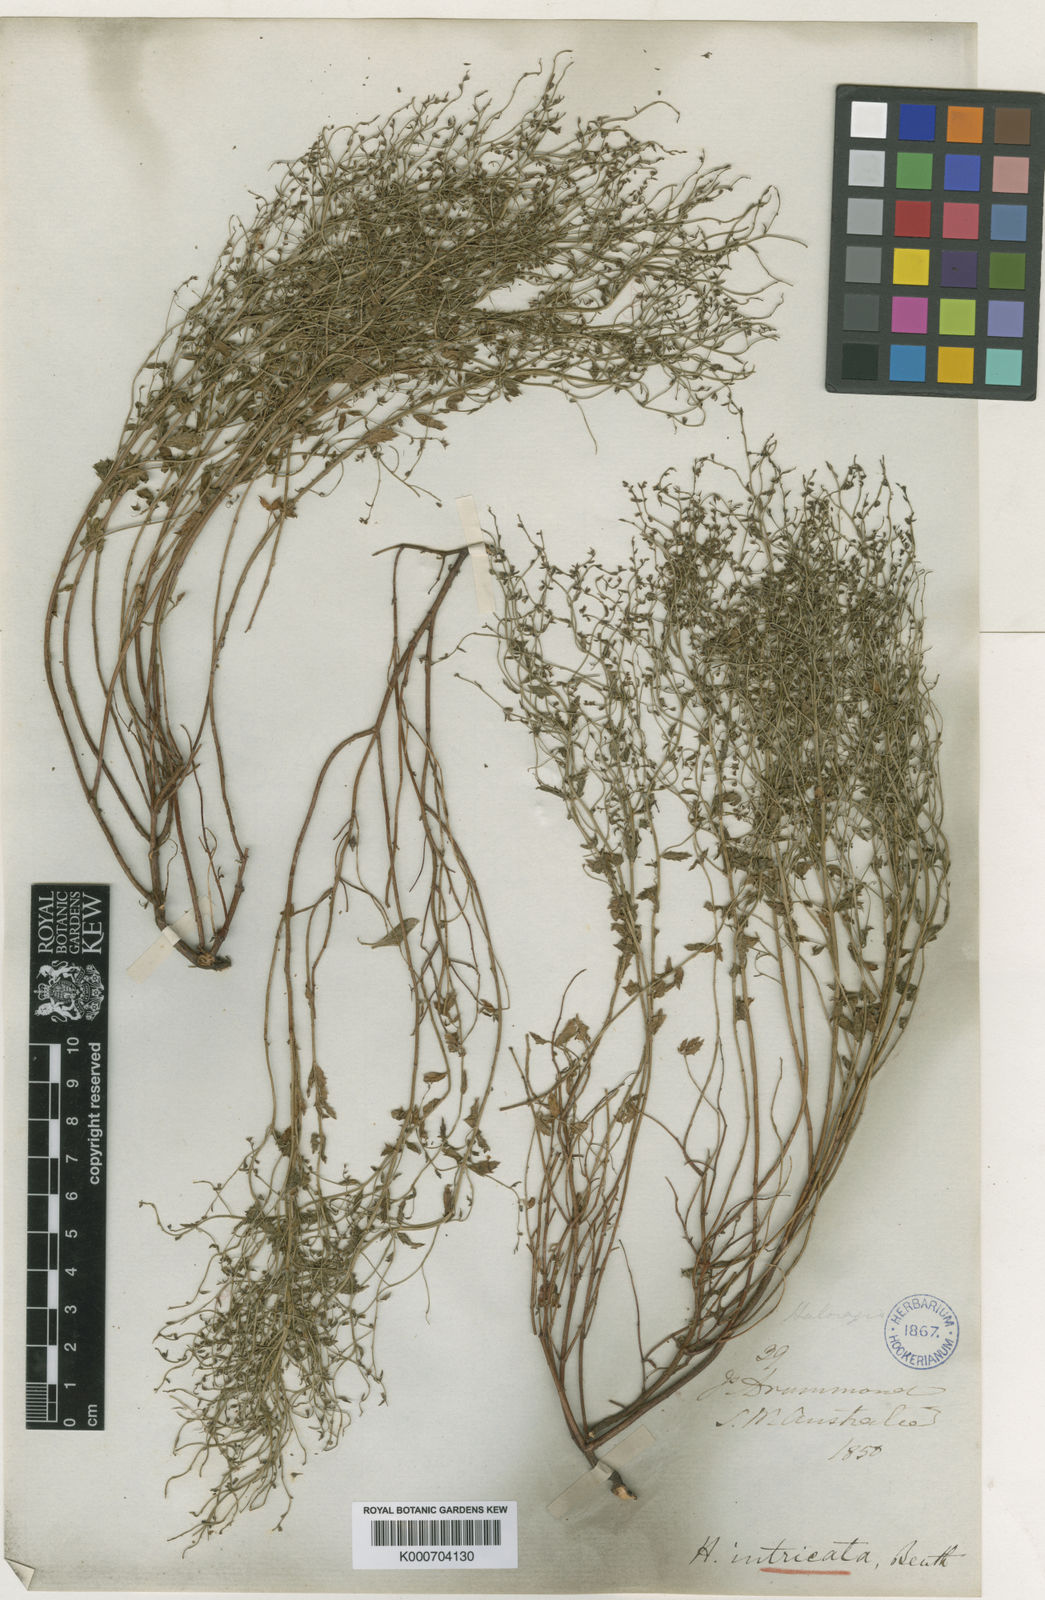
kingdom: Plantae
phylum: Tracheophyta
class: Magnoliopsida
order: Saxifragales
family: Haloragaceae
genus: Gonocarpus
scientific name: Gonocarpus intricatus
